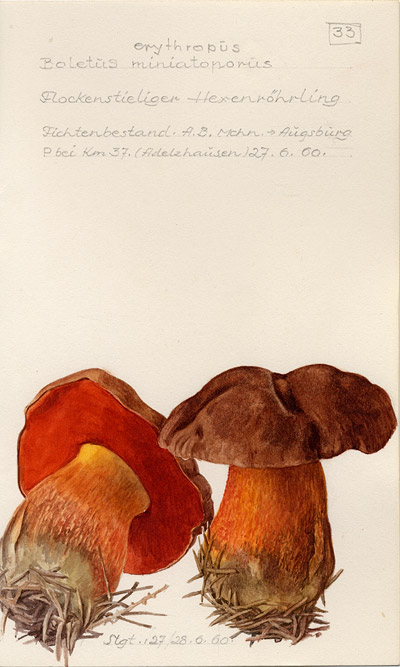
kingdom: Fungi
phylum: Basidiomycota
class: Agaricomycetes
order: Boletales
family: Boletaceae
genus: Neoboletus
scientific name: Neoboletus erythropus
